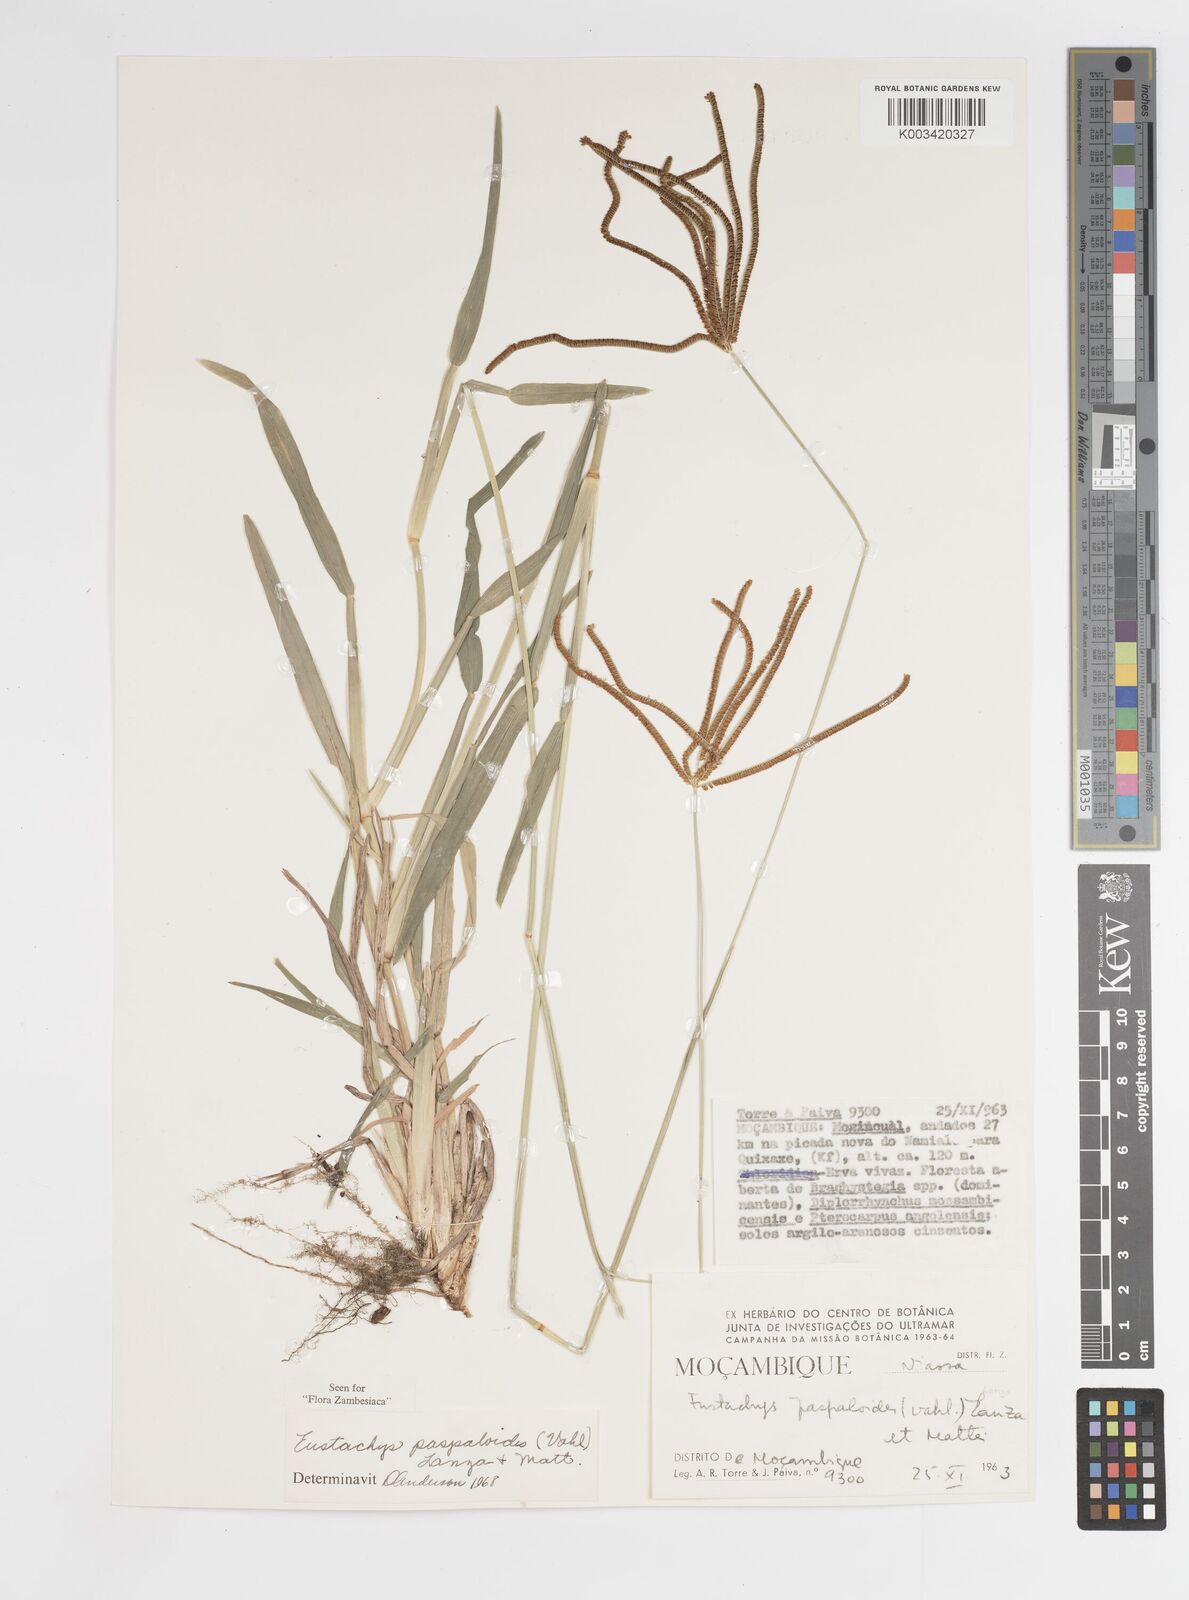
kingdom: Plantae
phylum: Tracheophyta
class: Liliopsida
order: Poales
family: Poaceae
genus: Eustachys
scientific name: Eustachys paspaloides
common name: Caribbean fingergrass
